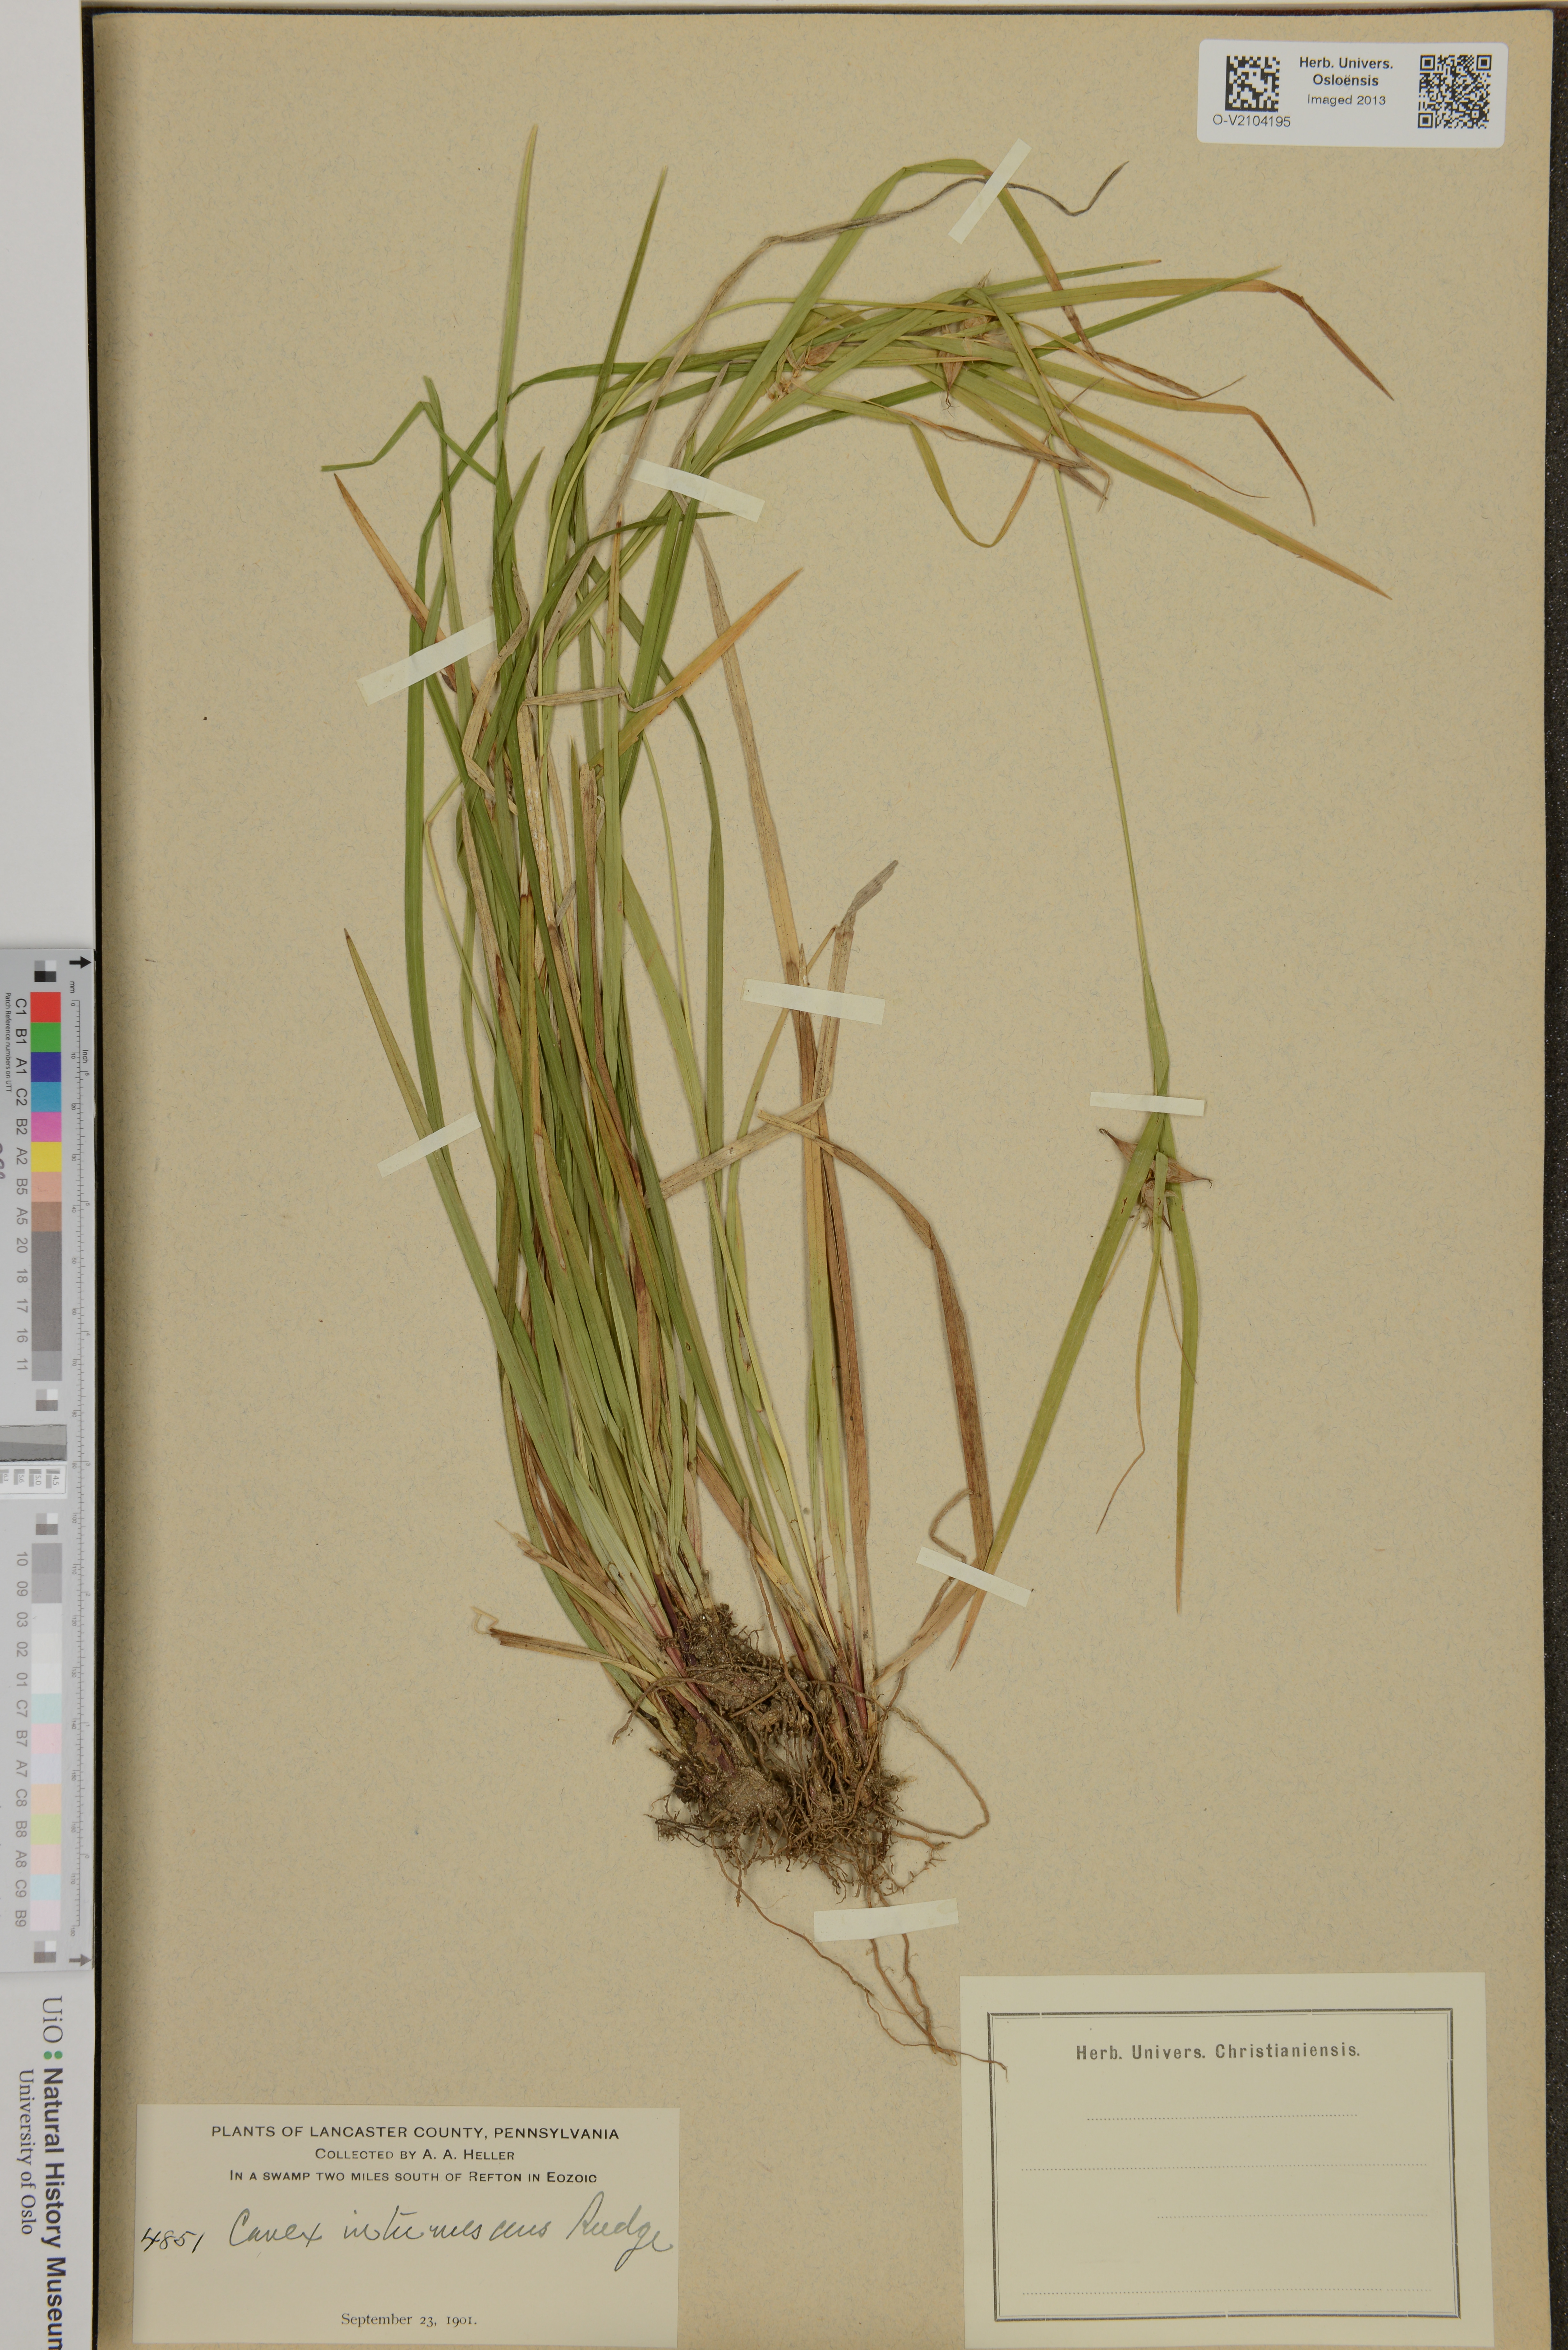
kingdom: Plantae
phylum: Tracheophyta
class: Liliopsida
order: Poales
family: Cyperaceae
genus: Carex
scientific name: Carex intumescens
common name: Greater bladder sedge
